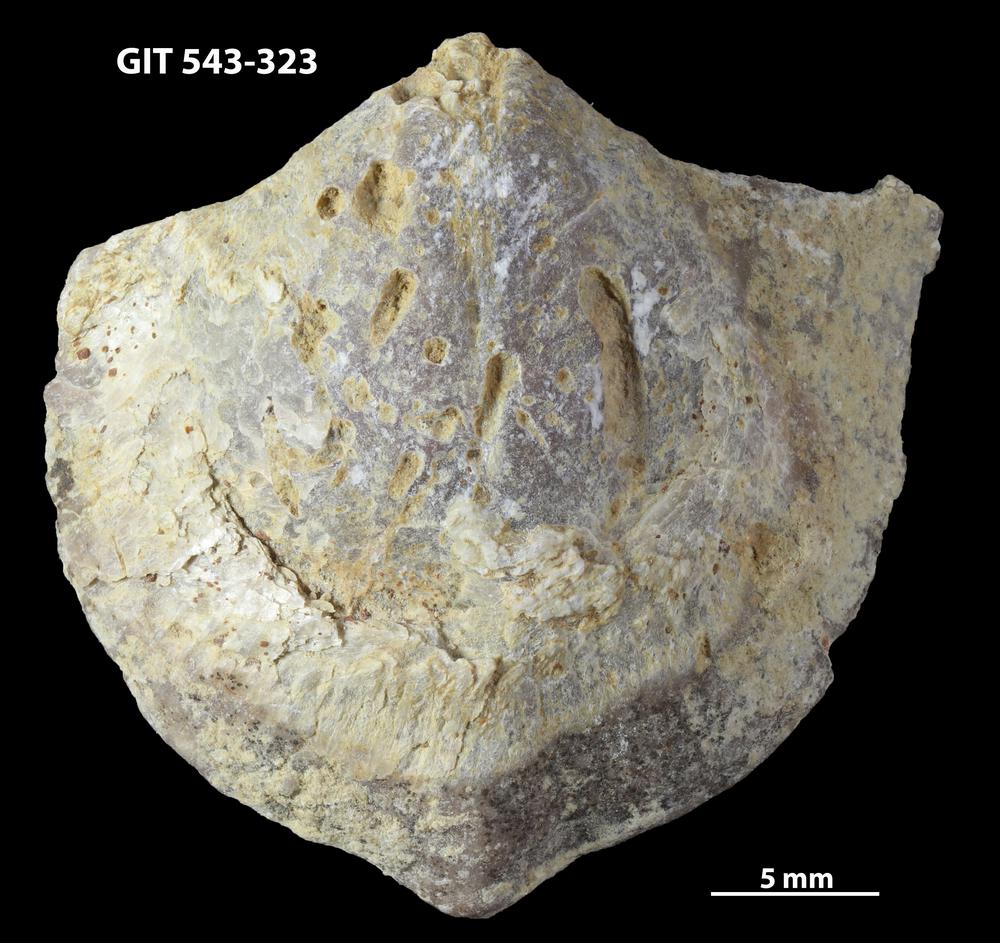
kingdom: Animalia
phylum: Brachiopoda
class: Rhynchonellata
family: Clitambonitidae
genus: Vellamo
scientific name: Vellamo Orthis verneuili
